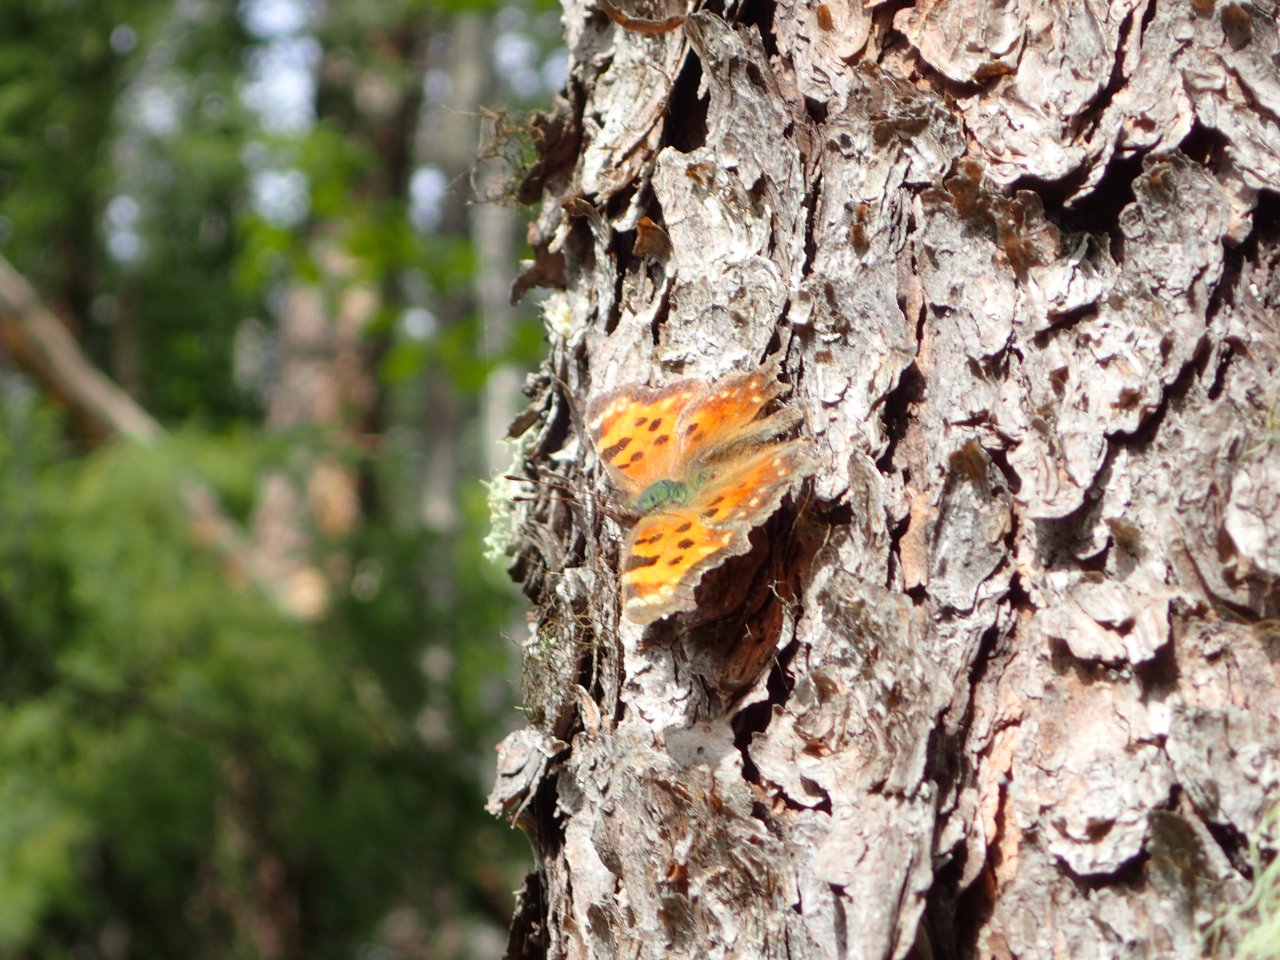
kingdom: Animalia
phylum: Arthropoda
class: Insecta
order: Lepidoptera
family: Nymphalidae
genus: Polygonia
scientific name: Polygonia
